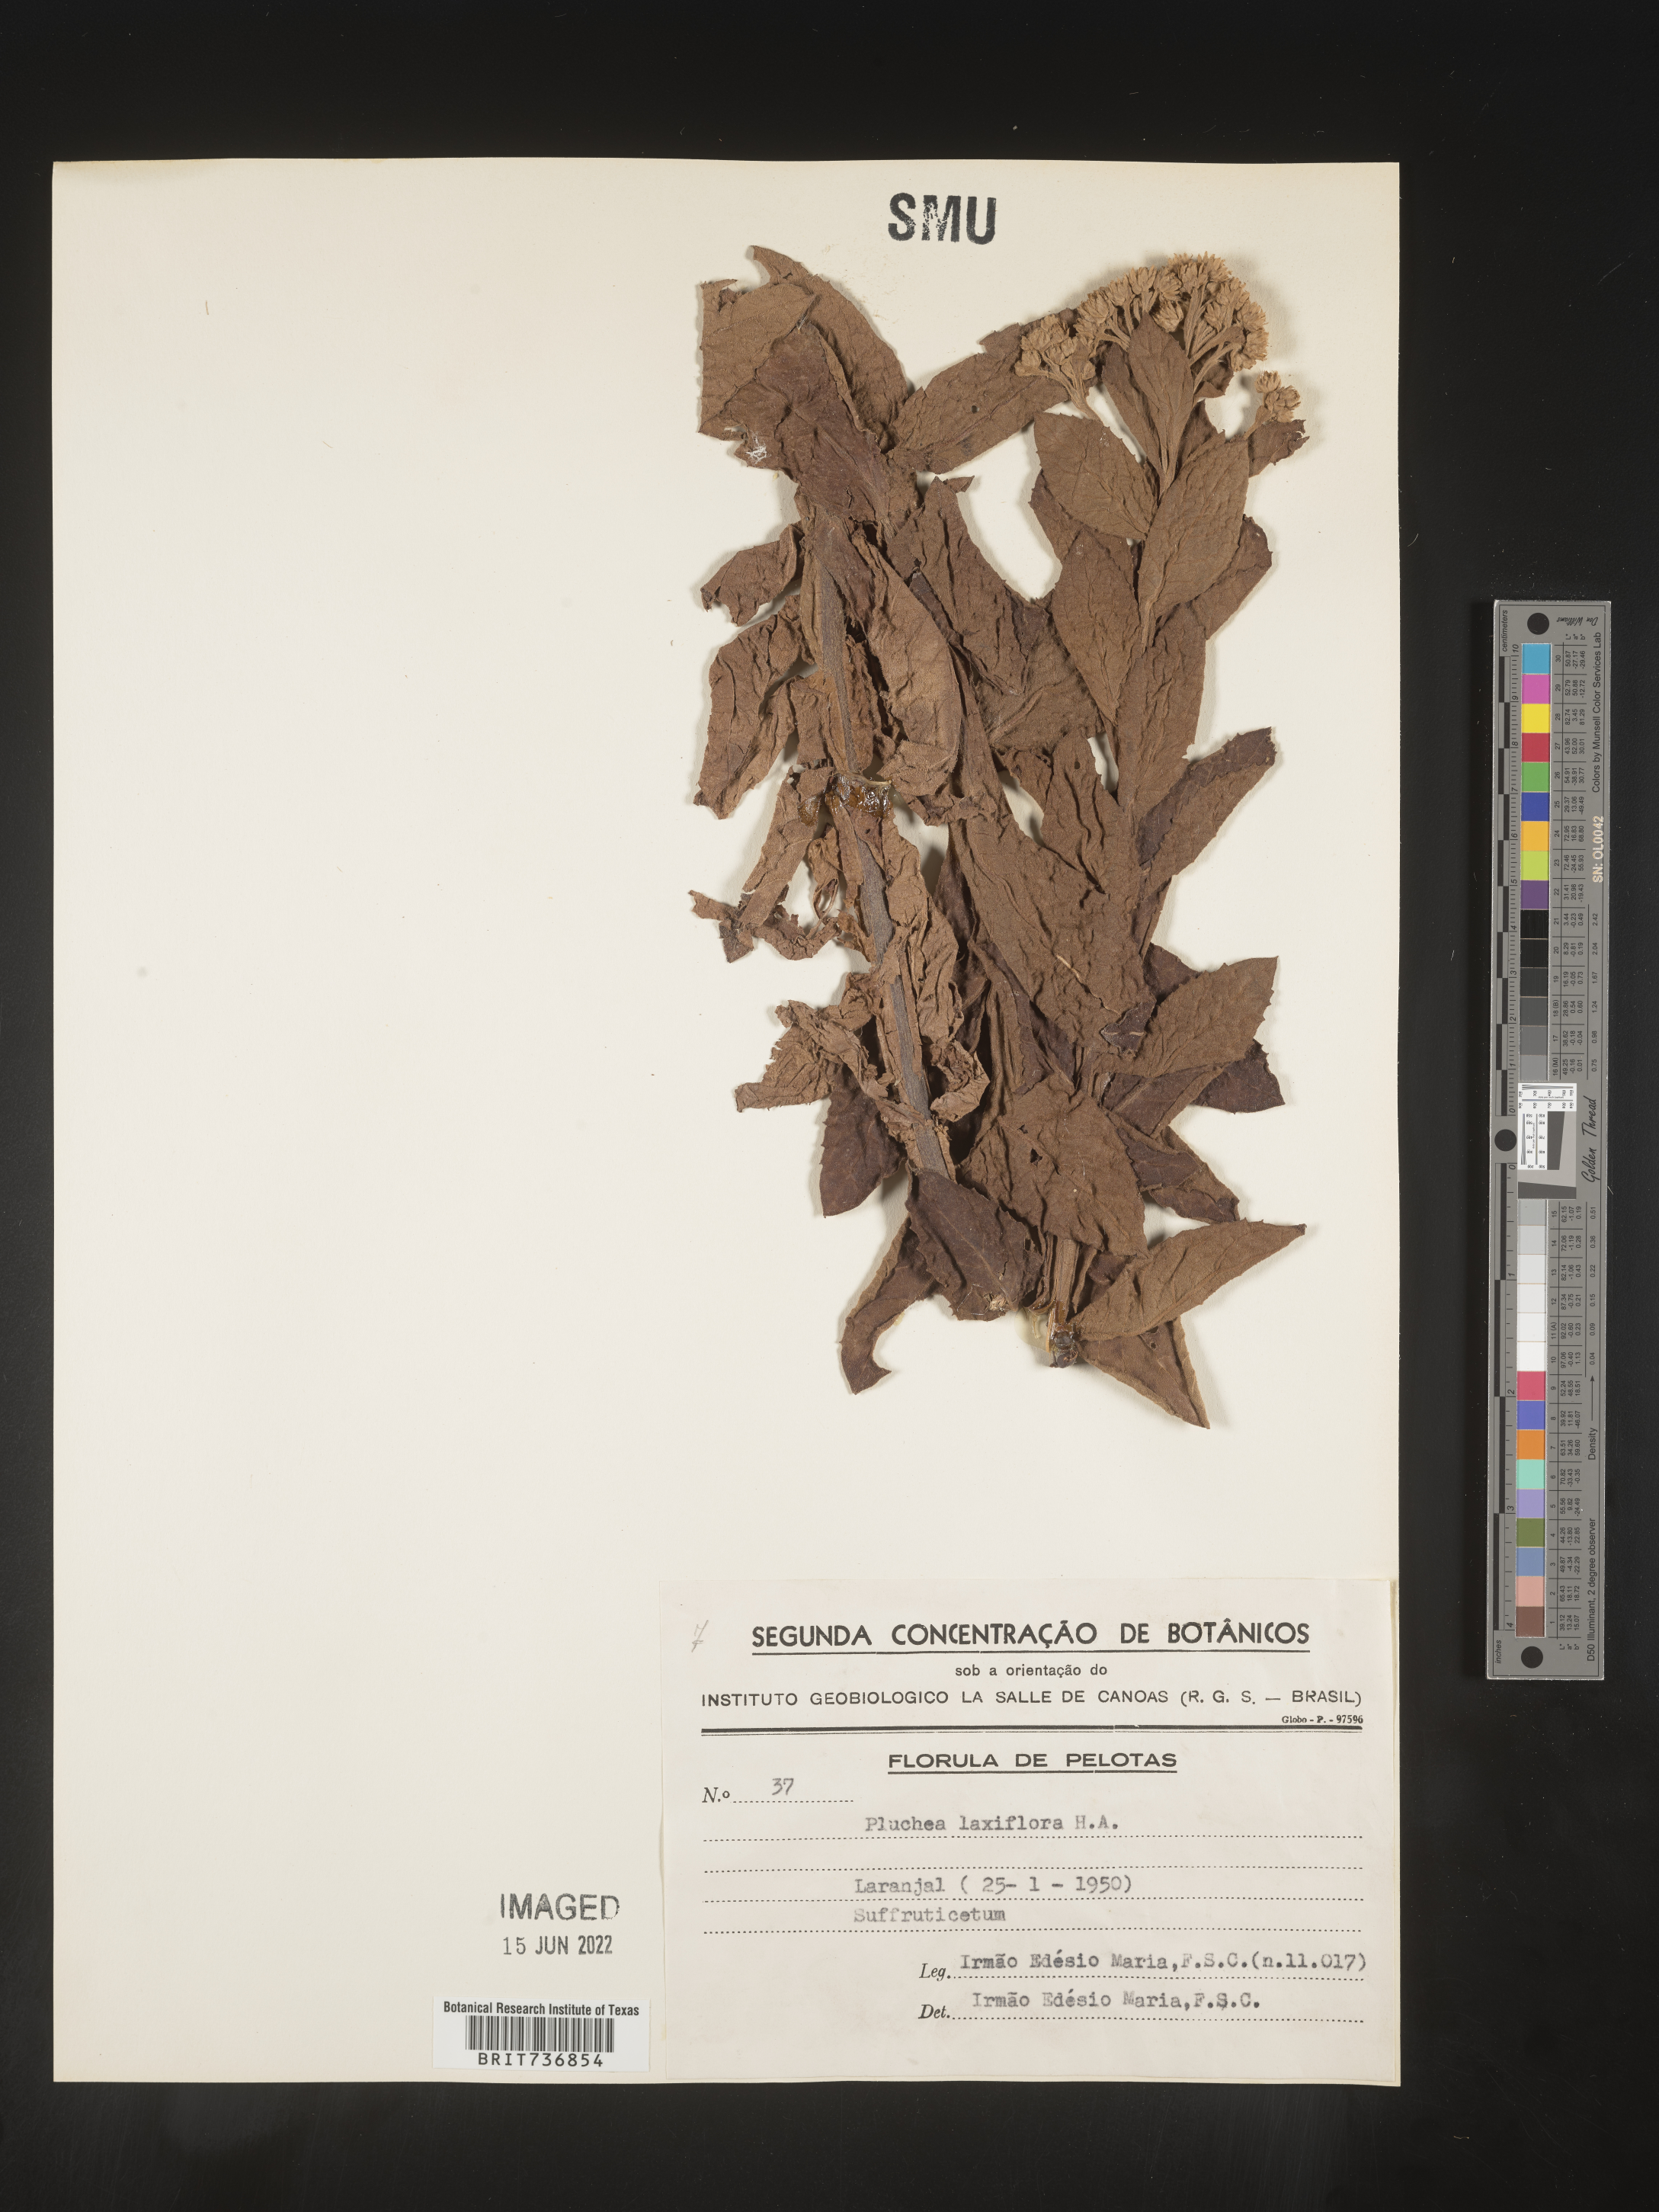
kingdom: Plantae
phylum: Tracheophyta
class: Magnoliopsida
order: Asterales
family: Asteraceae
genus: Pluchea
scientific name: Pluchea
